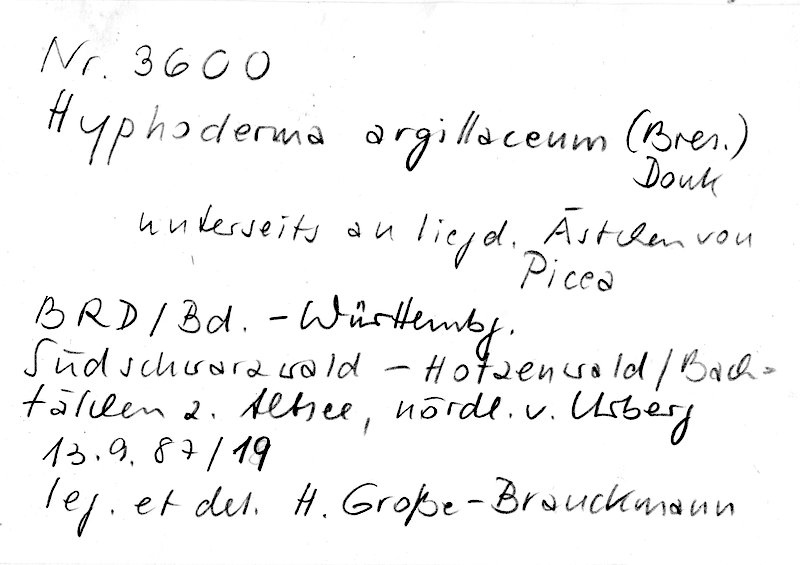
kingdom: Plantae
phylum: Tracheophyta
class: Pinopsida
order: Pinales
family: Pinaceae
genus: Picea
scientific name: Picea abies
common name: Norway spruce
